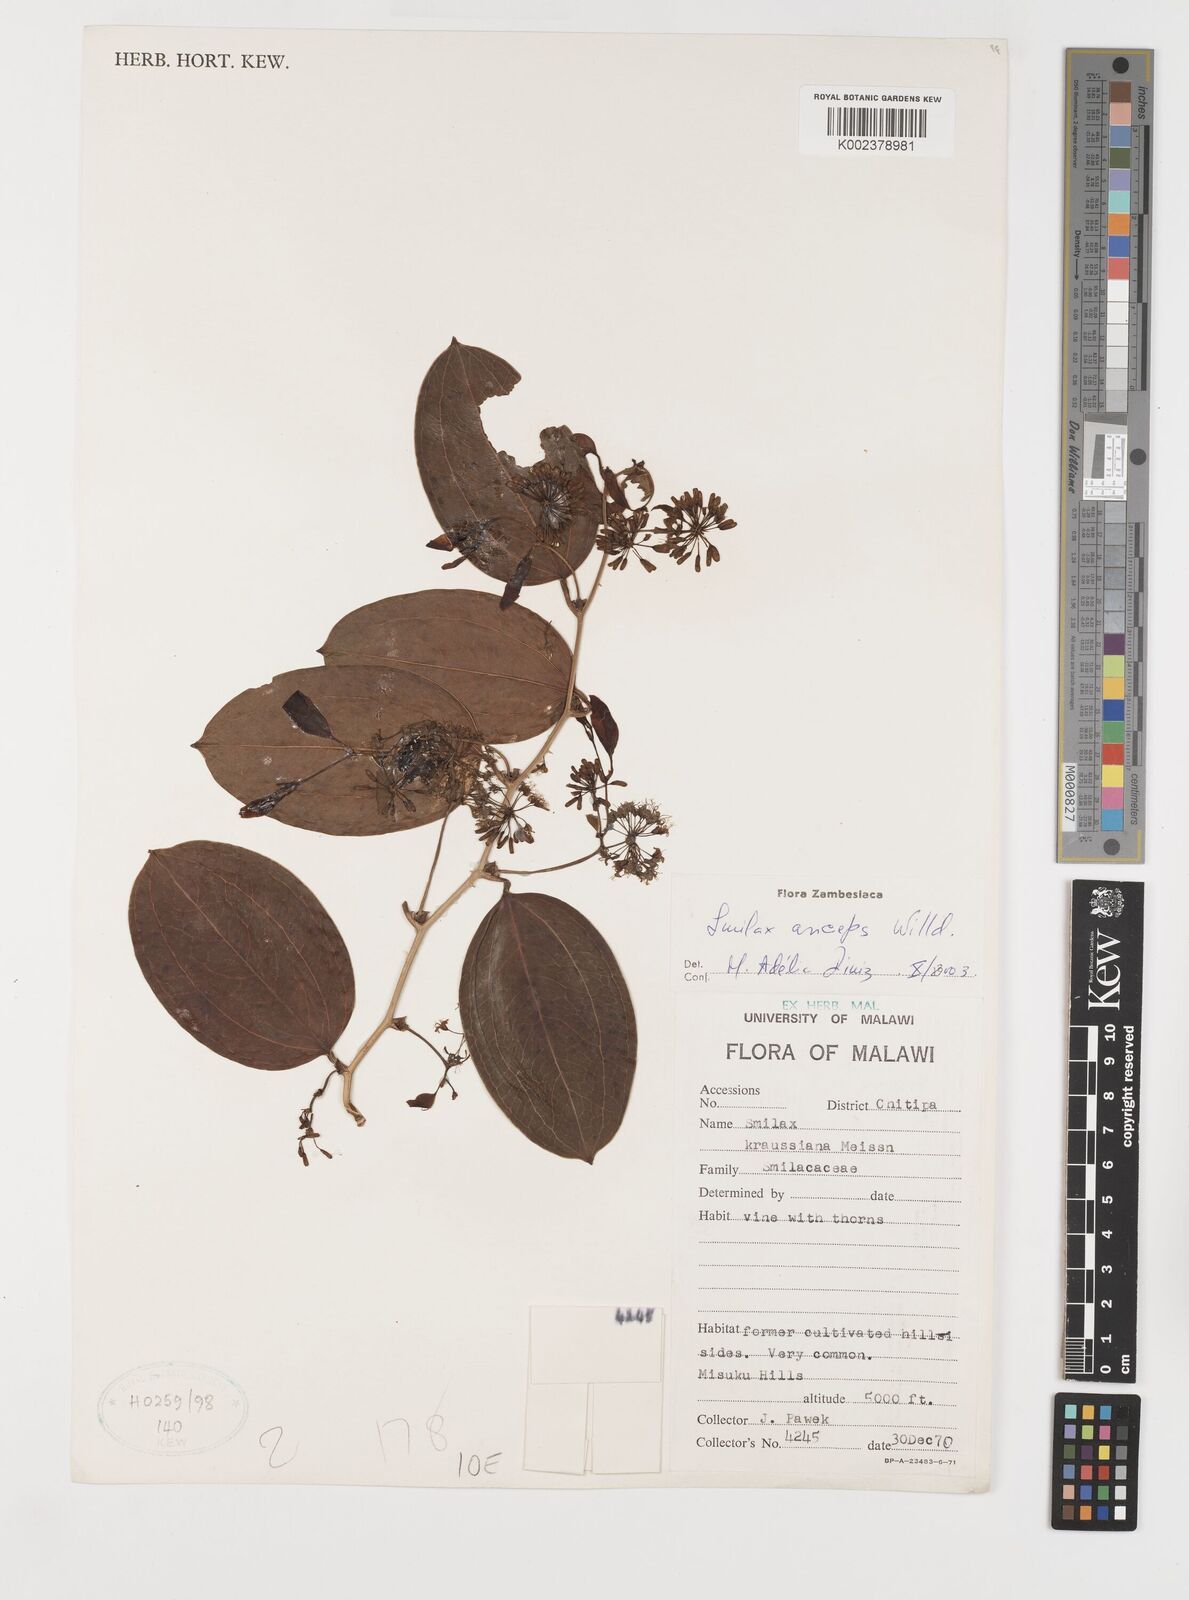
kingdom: Plantae
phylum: Tracheophyta
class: Liliopsida
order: Liliales
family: Smilacaceae
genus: Smilax
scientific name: Smilax anceps
